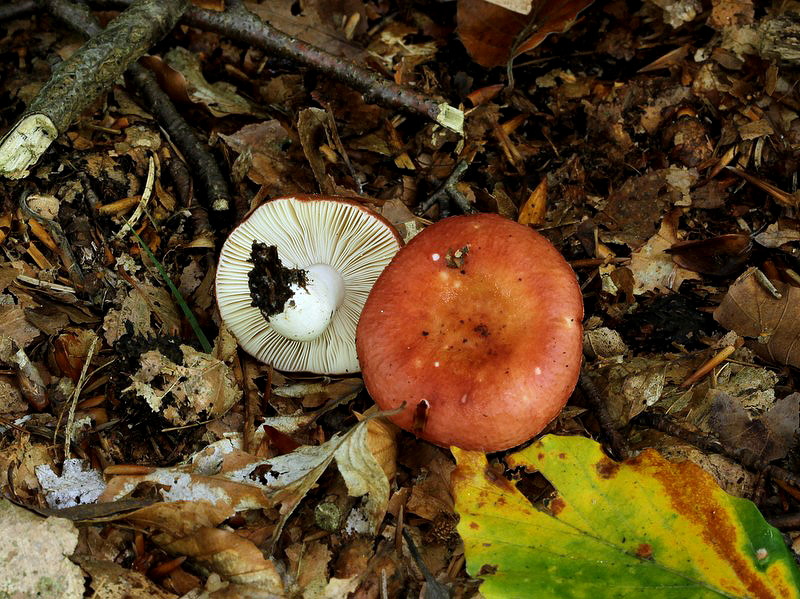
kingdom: Fungi
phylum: Basidiomycota
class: Agaricomycetes
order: Russulales
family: Russulaceae
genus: Russula
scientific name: Russula velenovskyi
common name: orangerød skørhat
